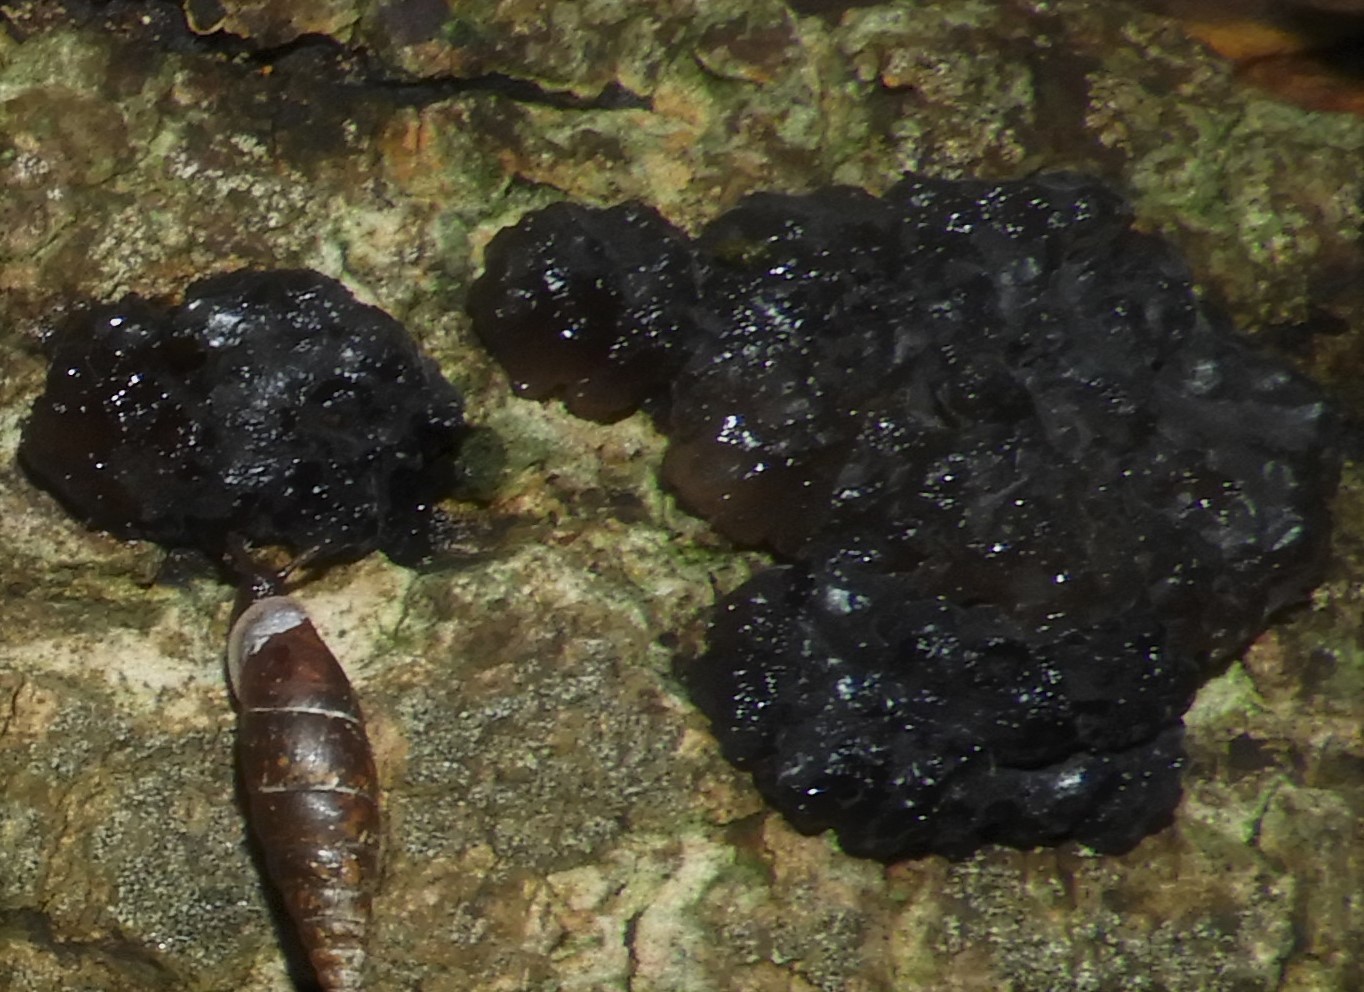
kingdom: Fungi
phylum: Basidiomycota
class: Agaricomycetes
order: Auriculariales
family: Auriculariaceae
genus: Exidia
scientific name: Exidia nigricans
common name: almindelig bævretop
